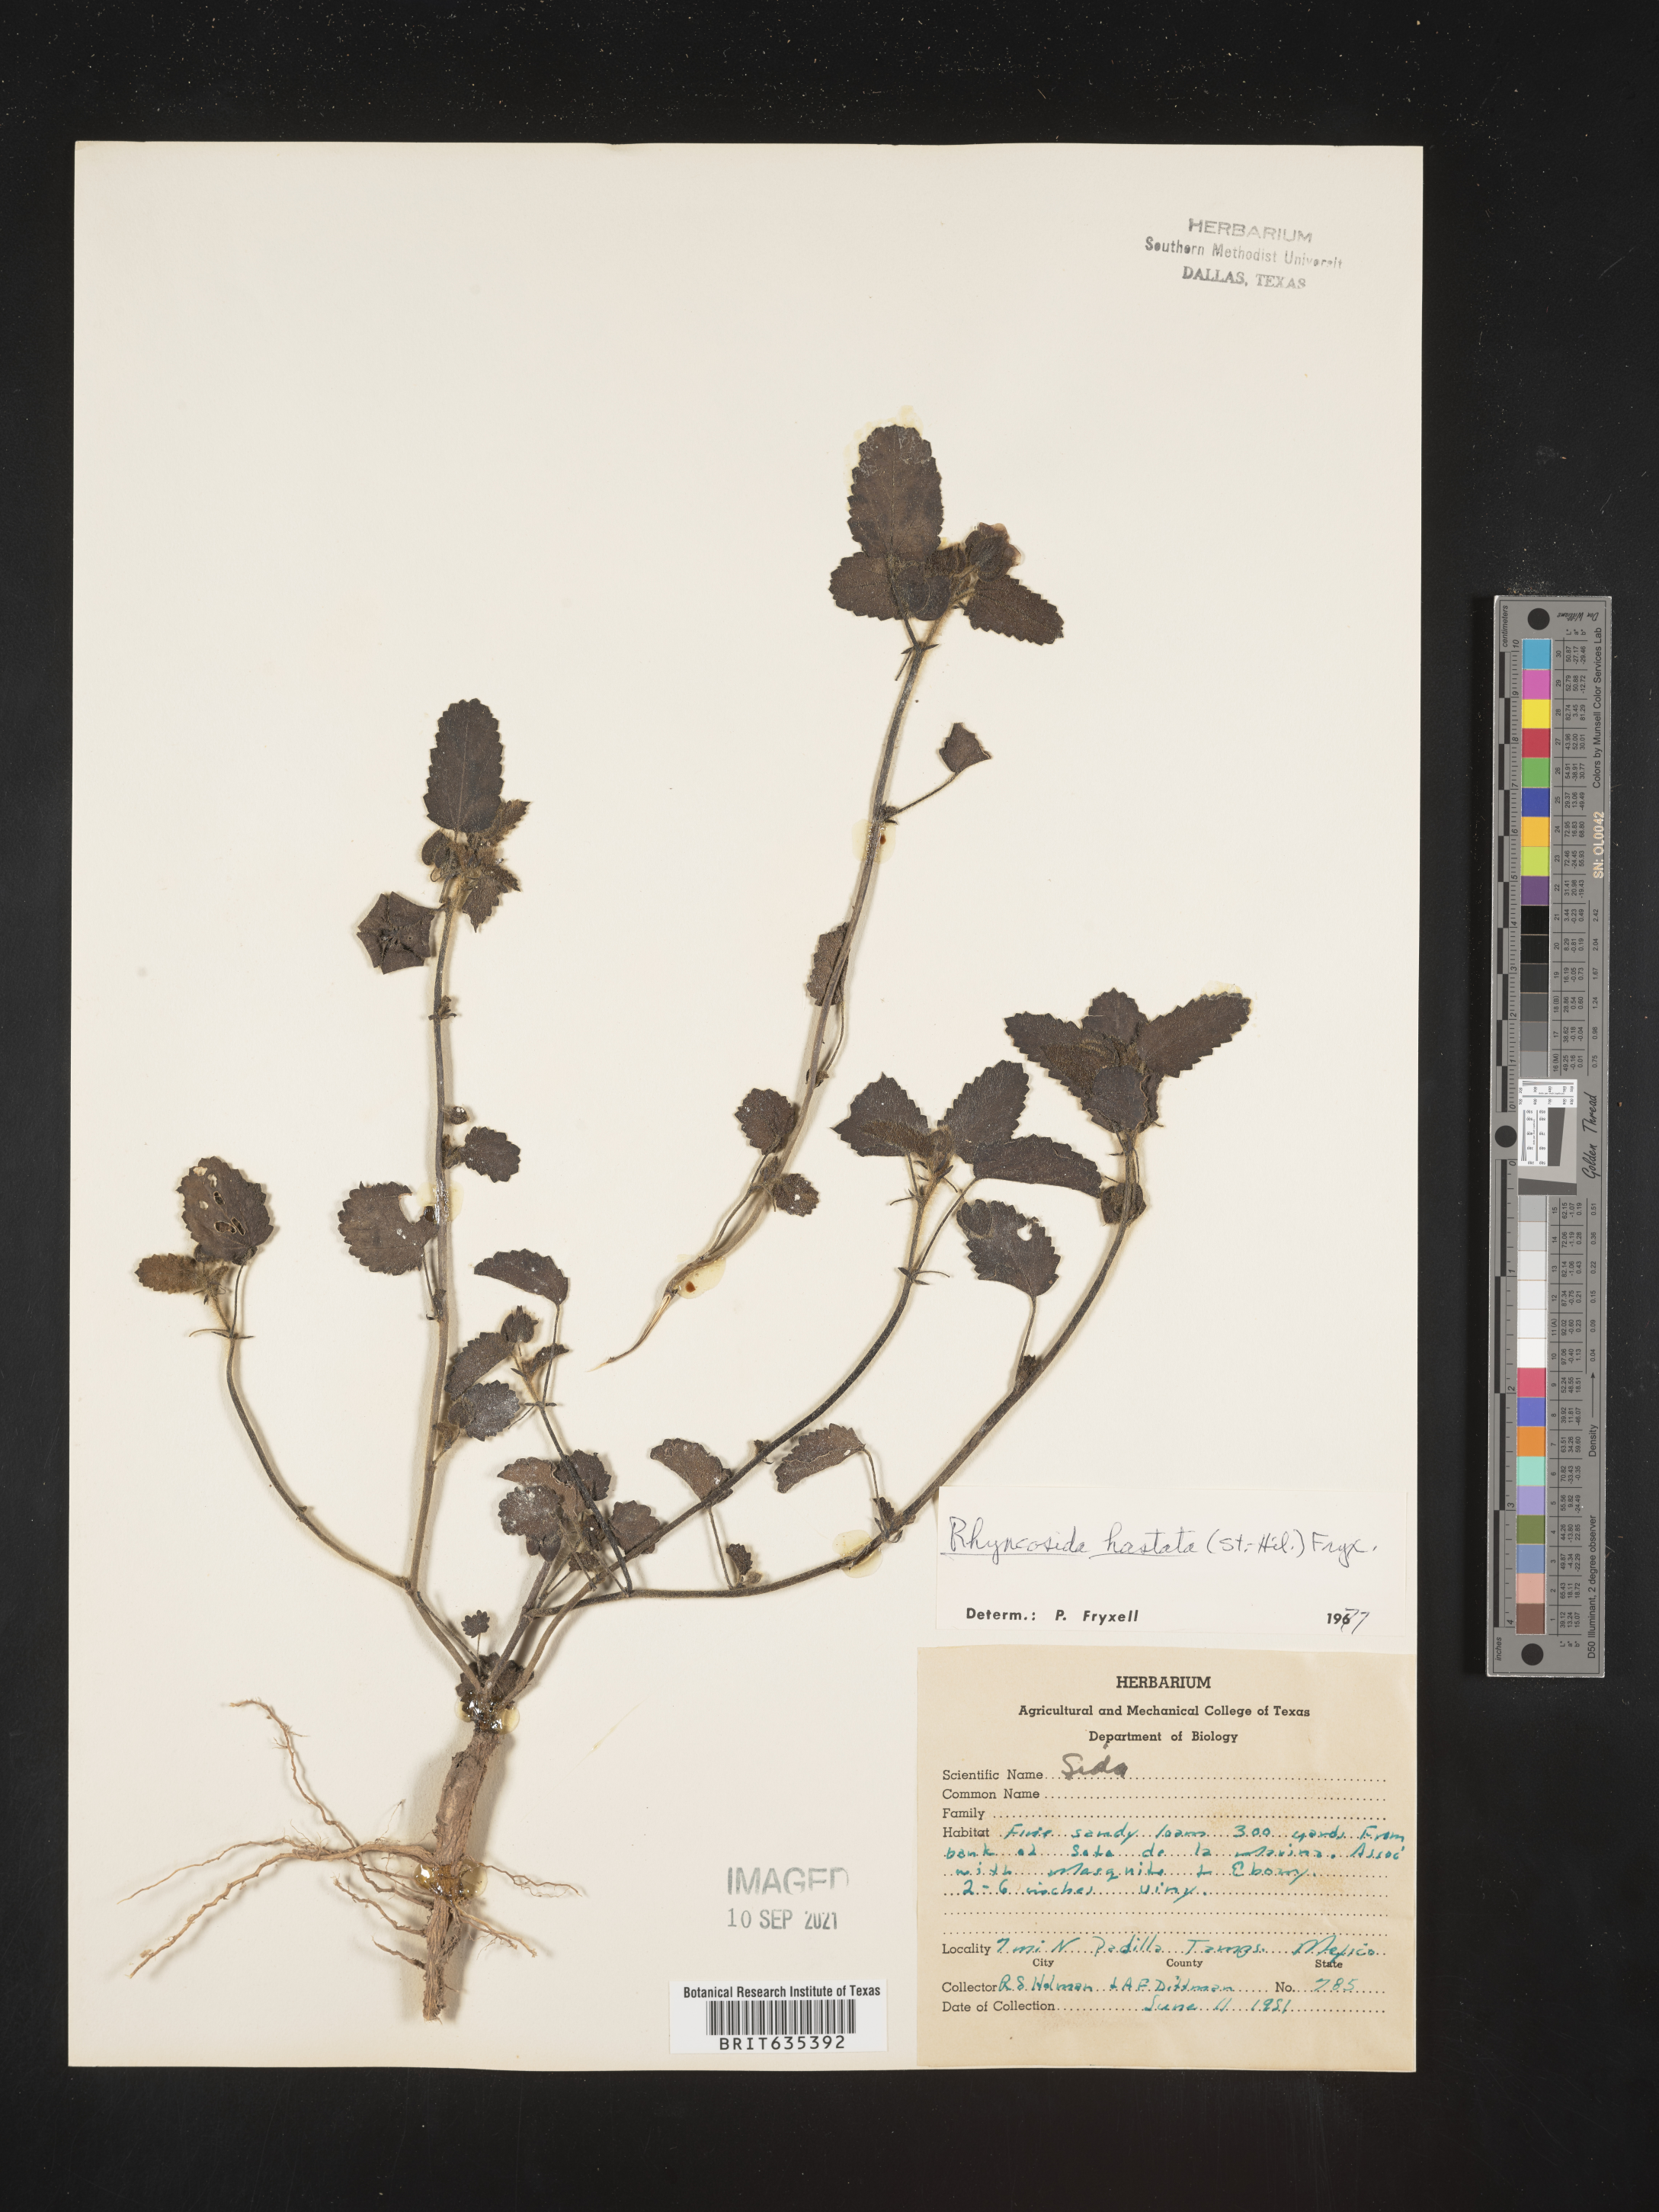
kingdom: Plantae
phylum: Tracheophyta
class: Magnoliopsida
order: Malvales
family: Malvaceae
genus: Rhynchosida
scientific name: Rhynchosida
